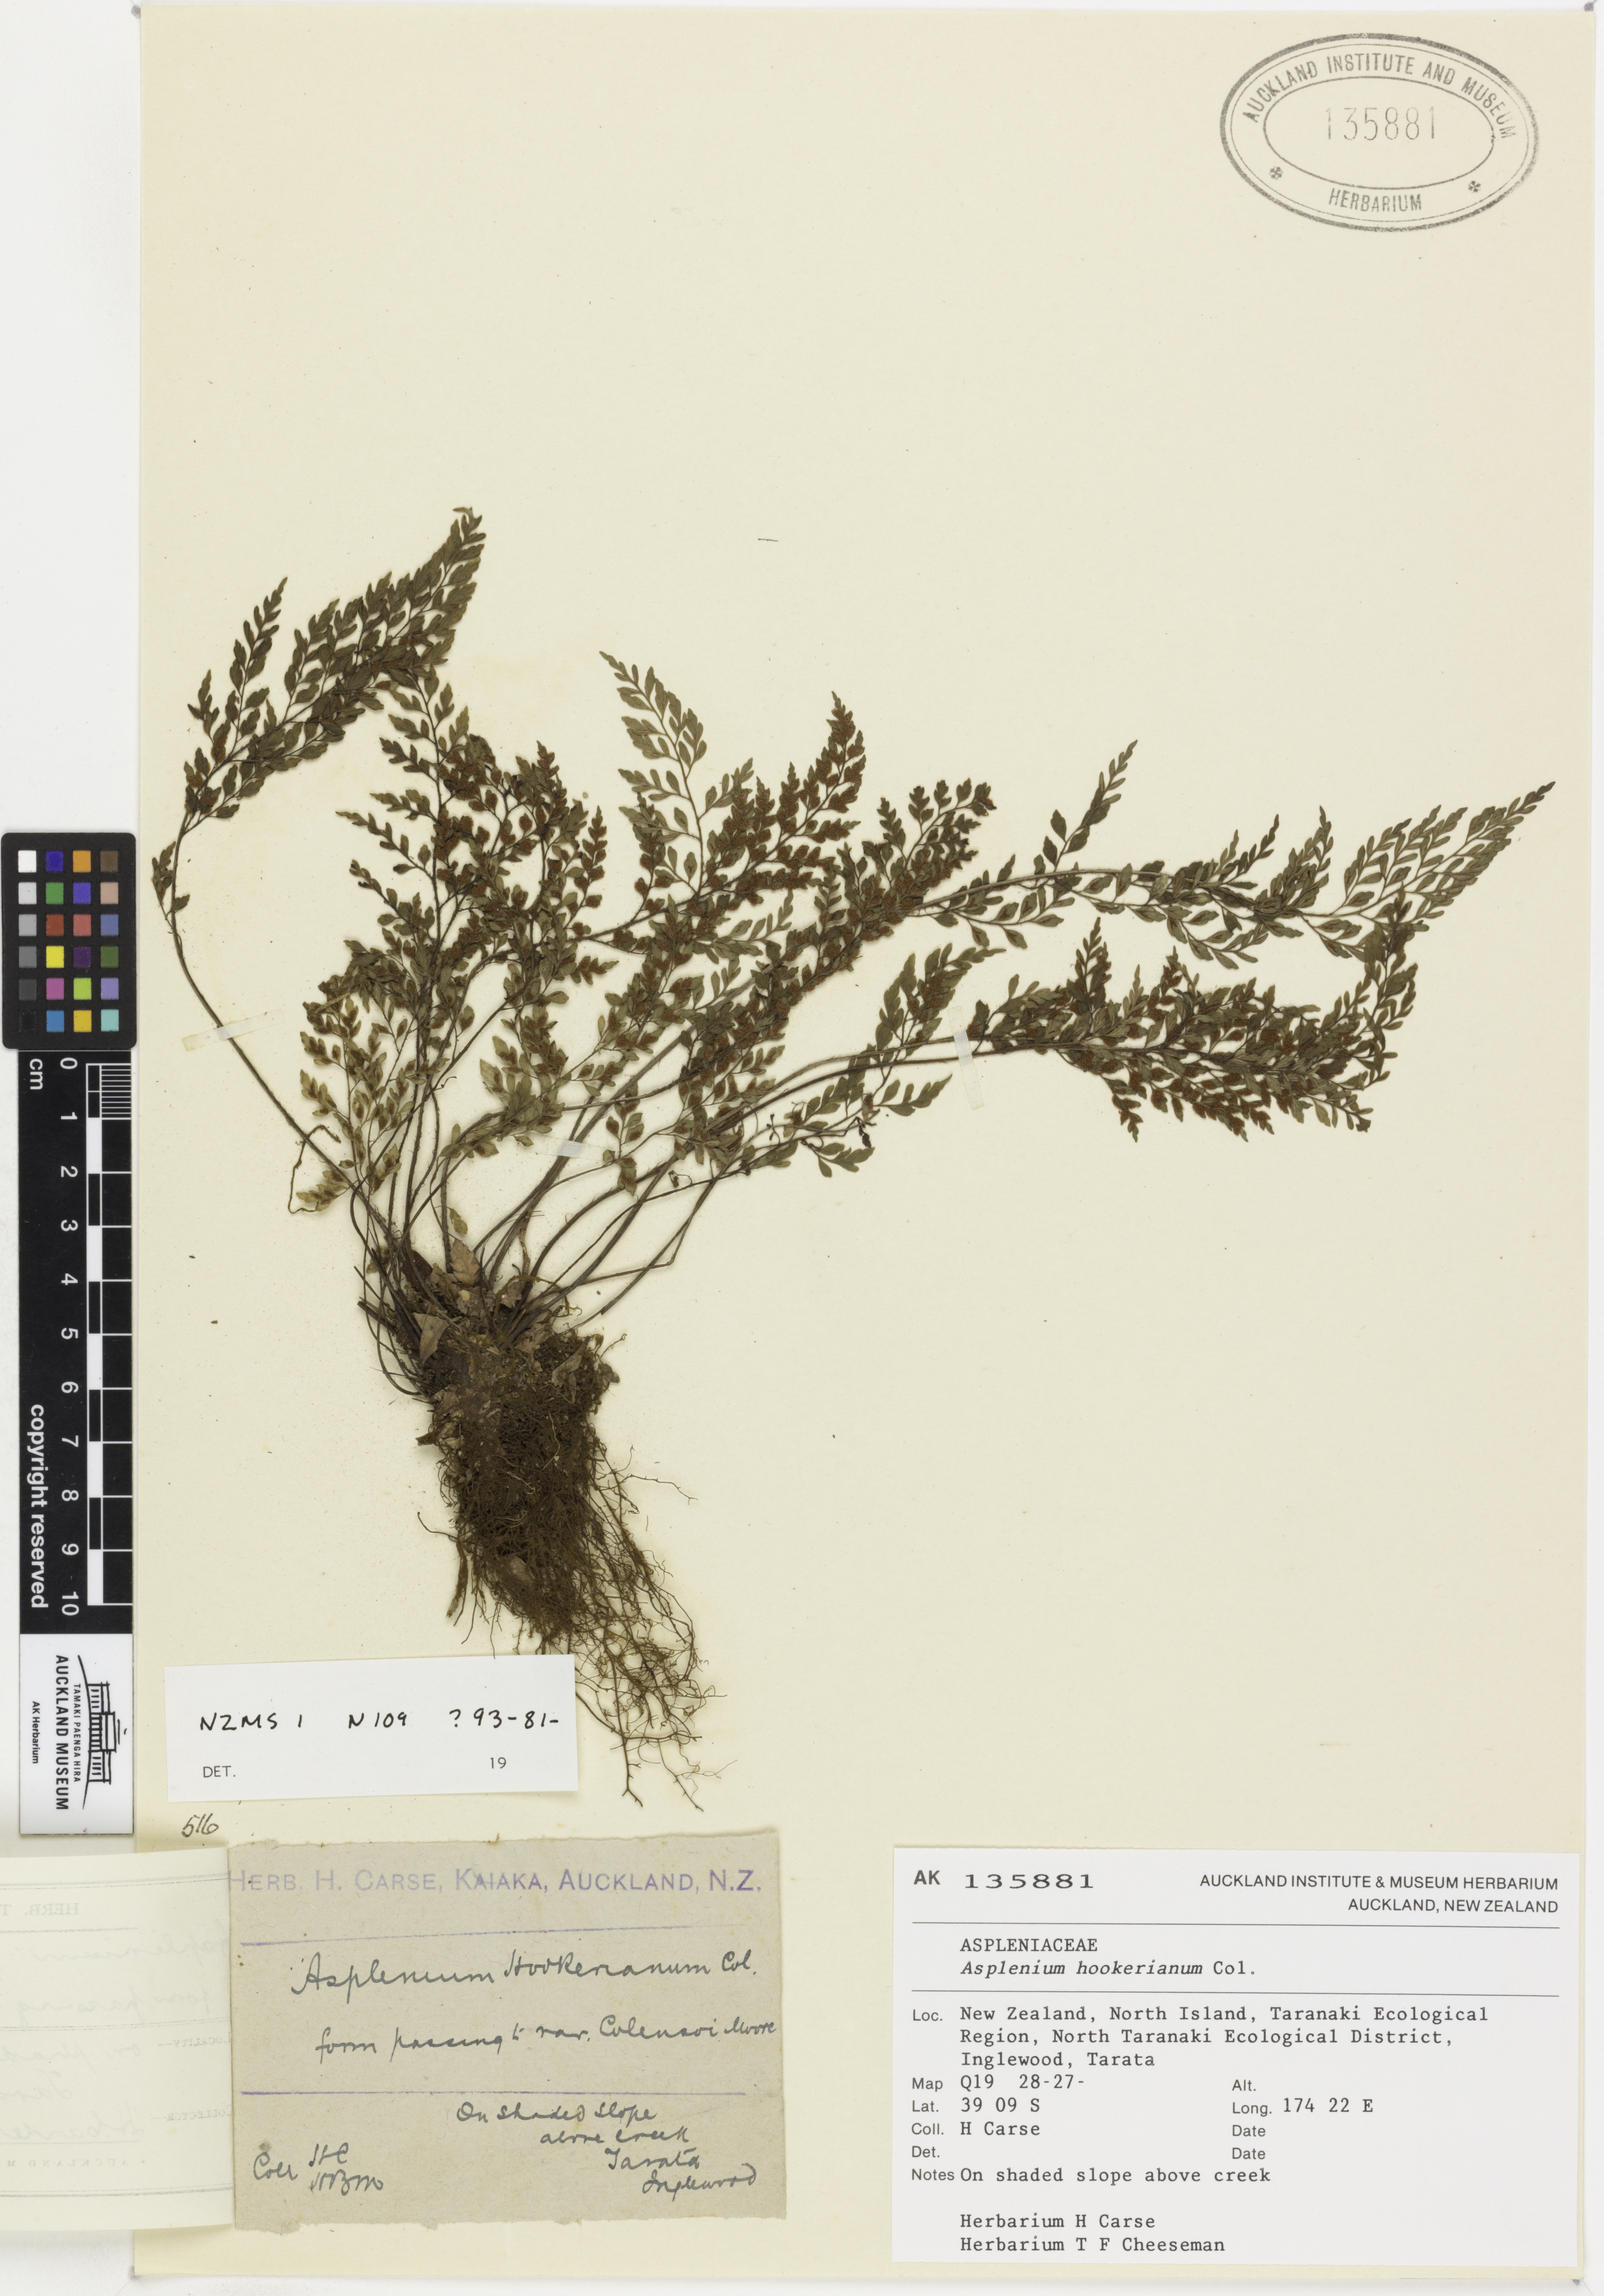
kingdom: Plantae
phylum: Tracheophyta
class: Polypodiopsida
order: Polypodiales
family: Aspleniaceae
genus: Asplenium
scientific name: Asplenium hookerianum
